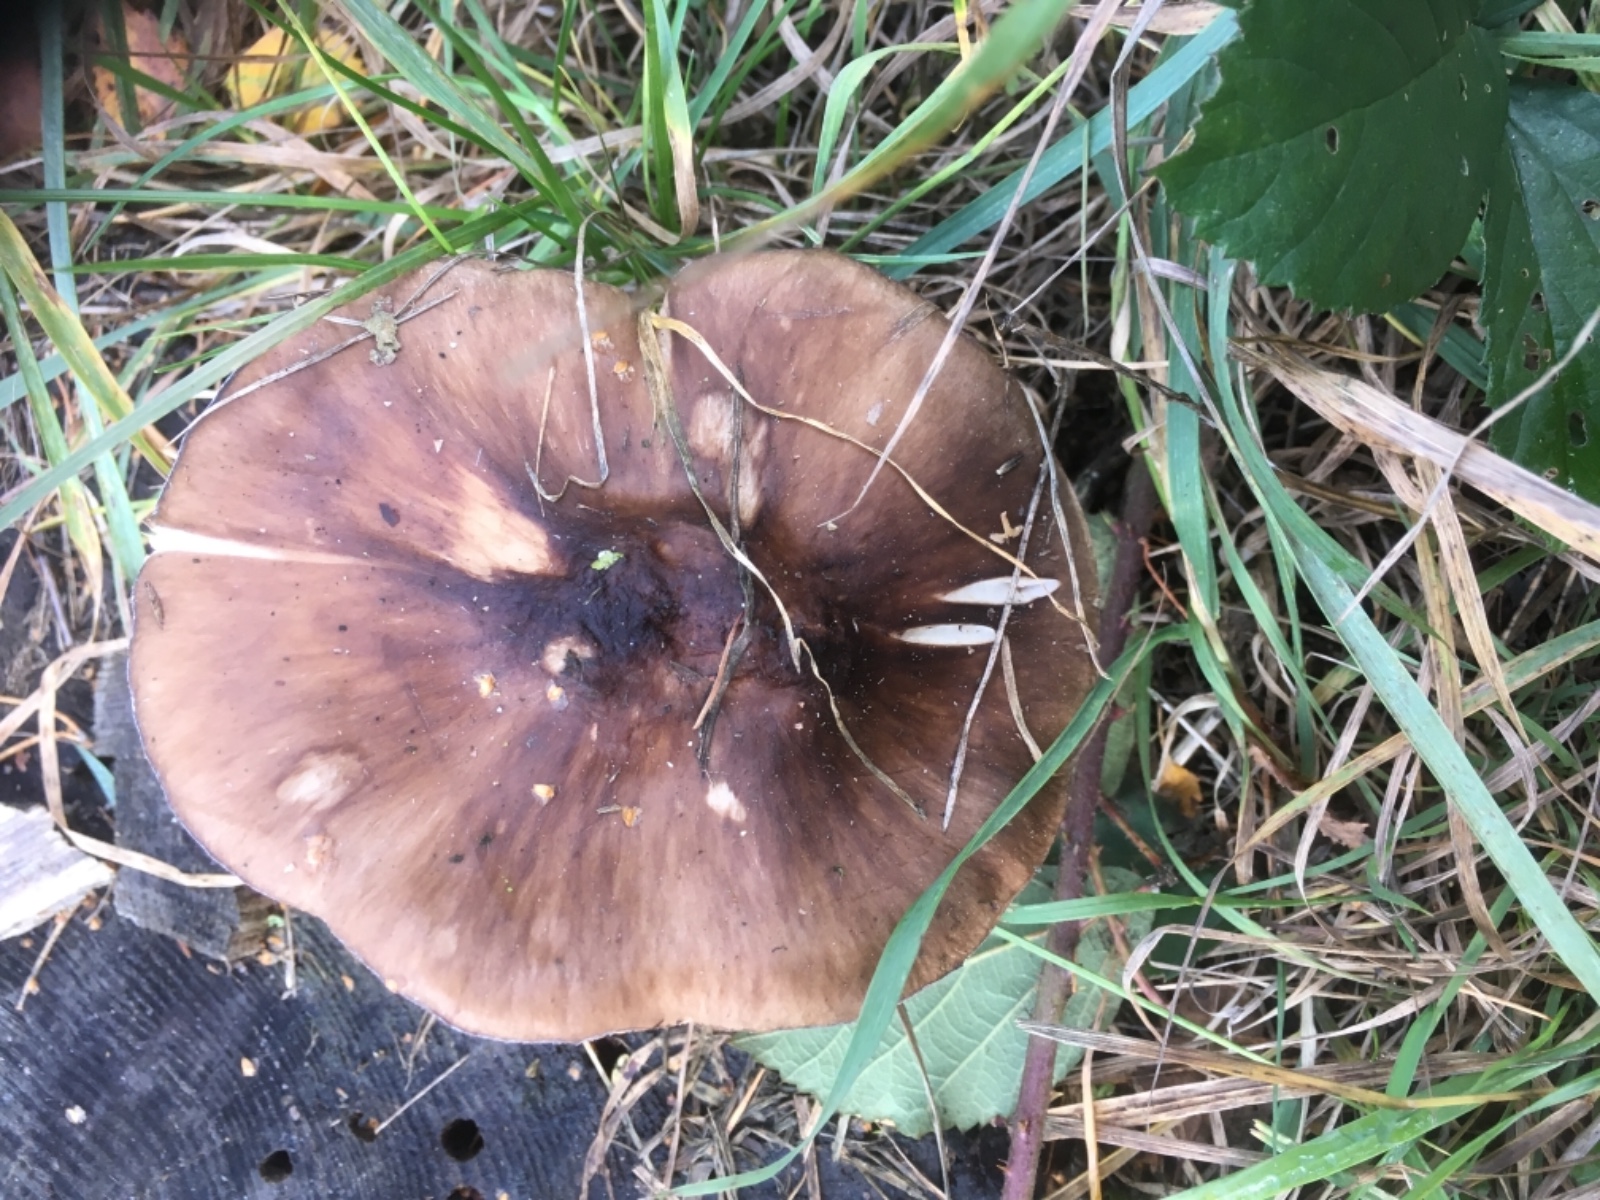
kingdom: Fungi
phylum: Basidiomycota
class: Agaricomycetes
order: Agaricales
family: Pluteaceae
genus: Pluteus
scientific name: Pluteus
